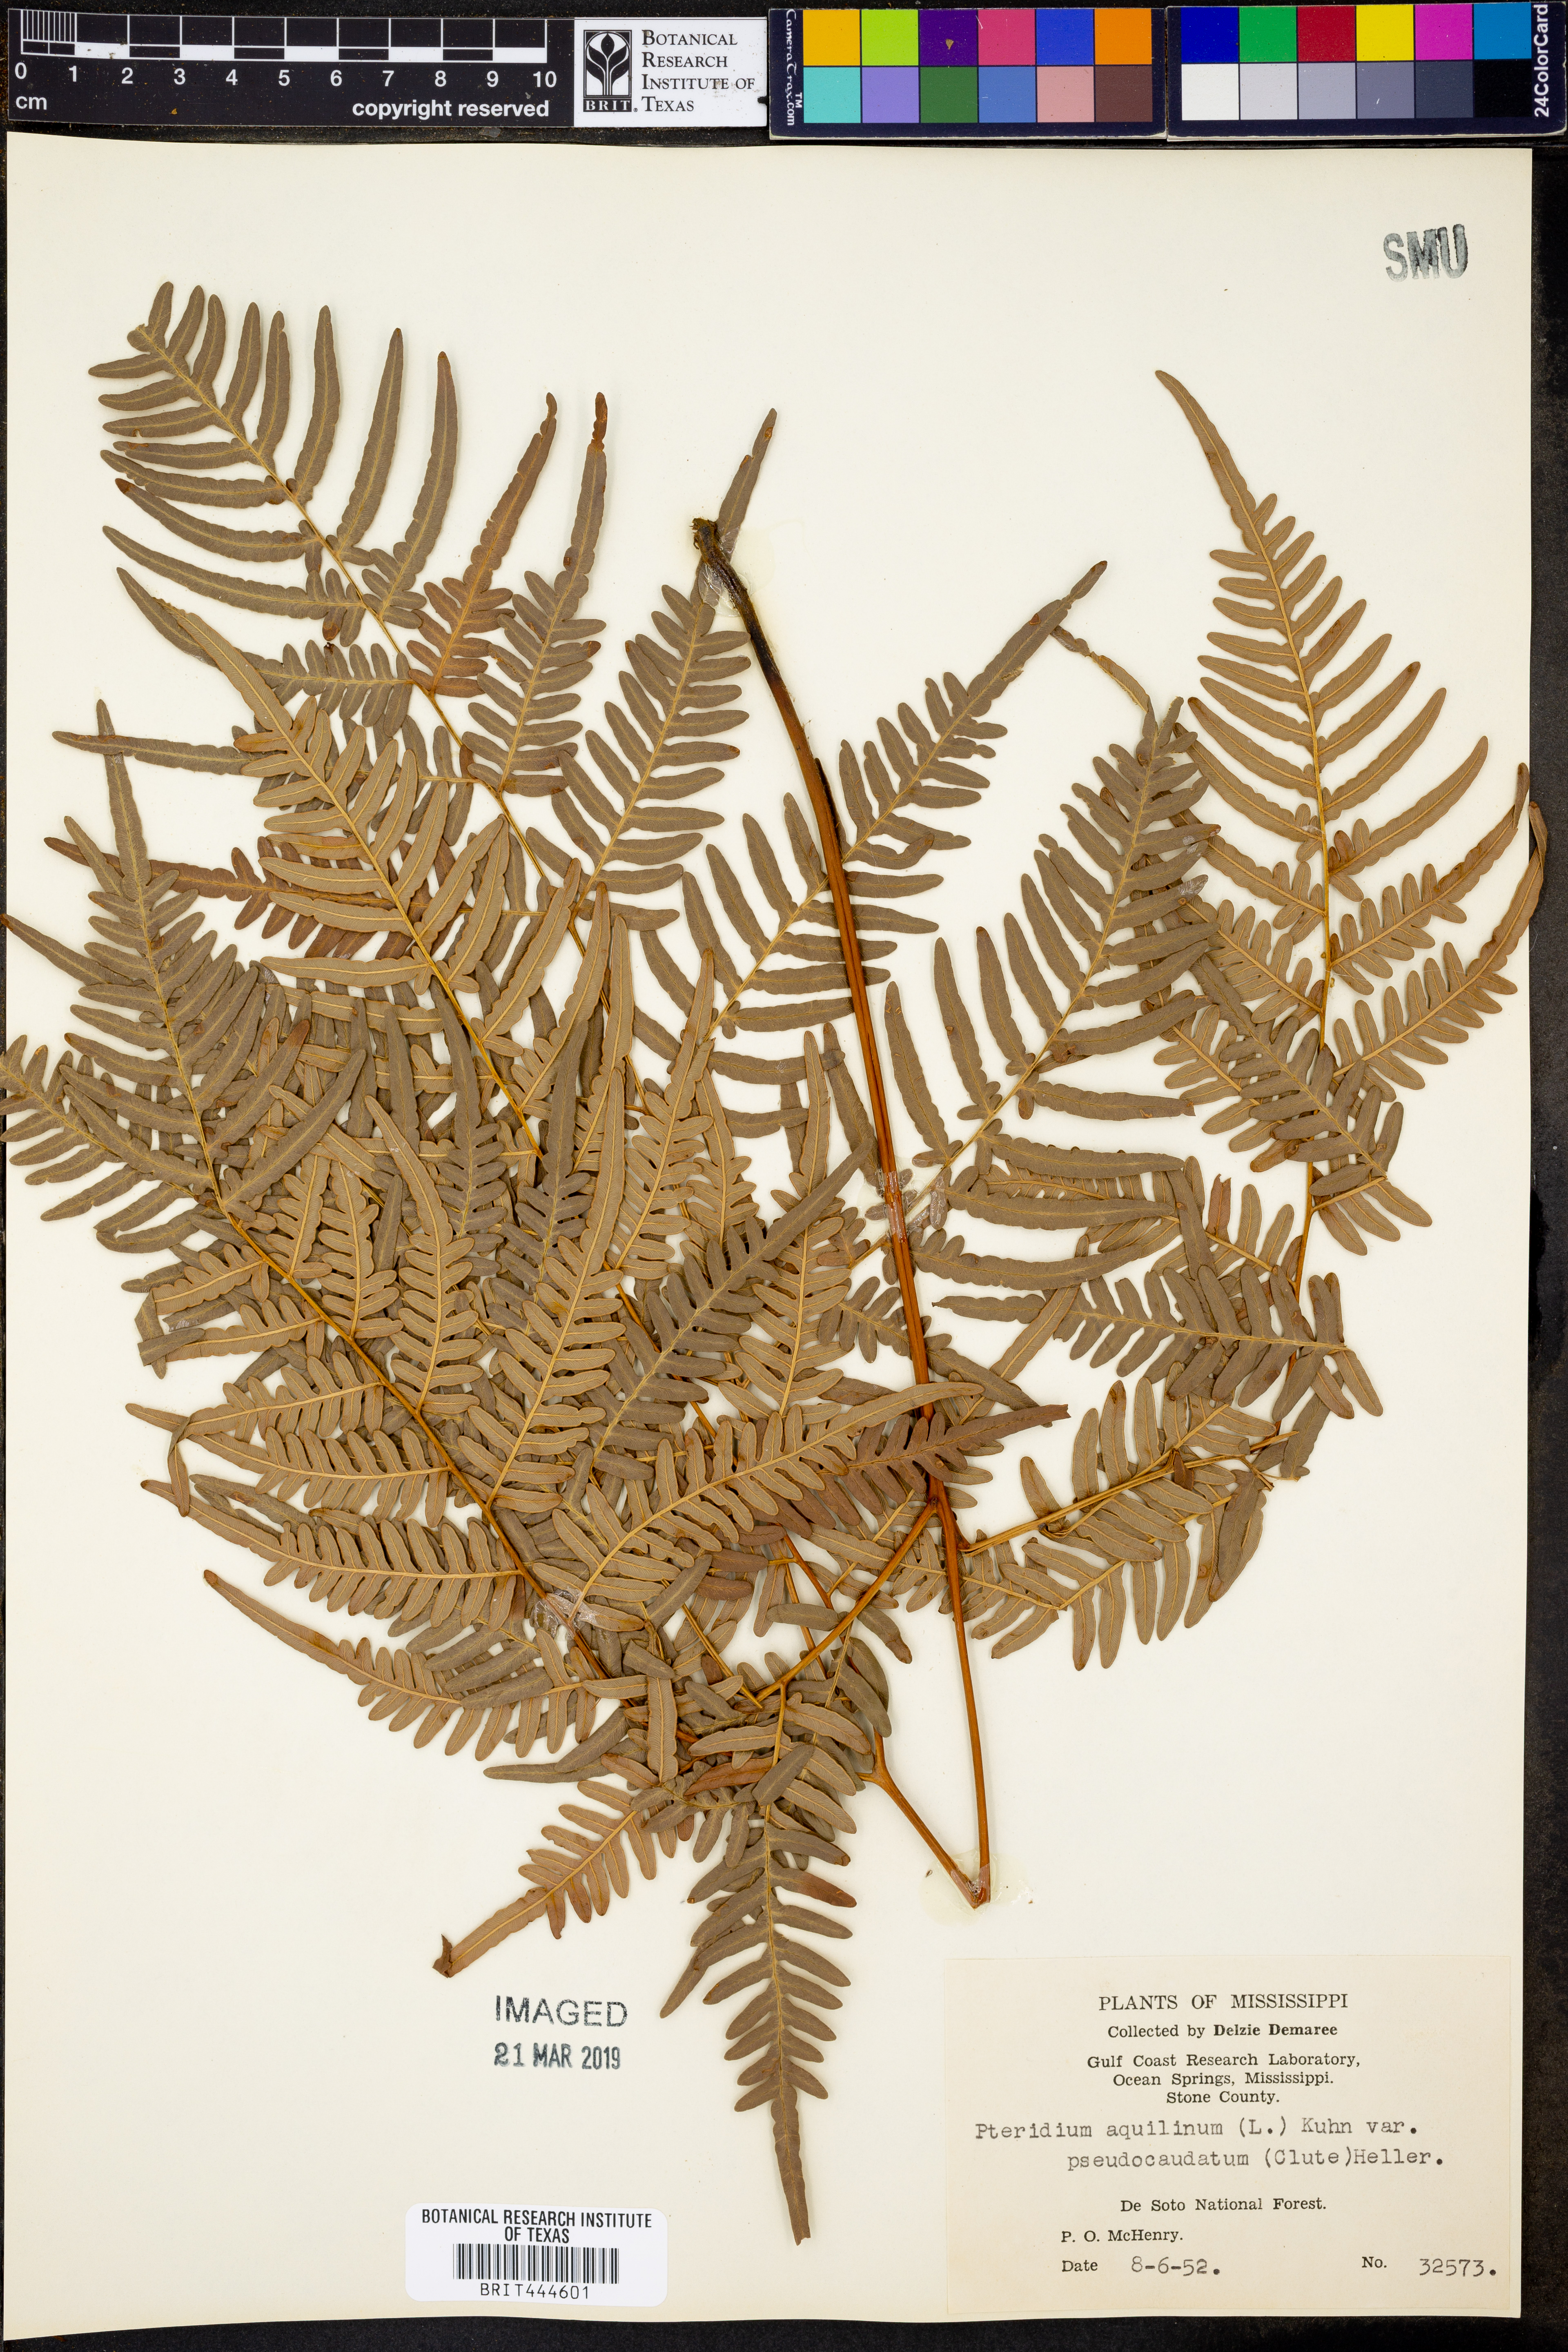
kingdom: Plantae
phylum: Tracheophyta
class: Polypodiopsida
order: Polypodiales
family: Dennstaedtiaceae
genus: Pteridium
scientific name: Pteridium aquilinum
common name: Bracken
